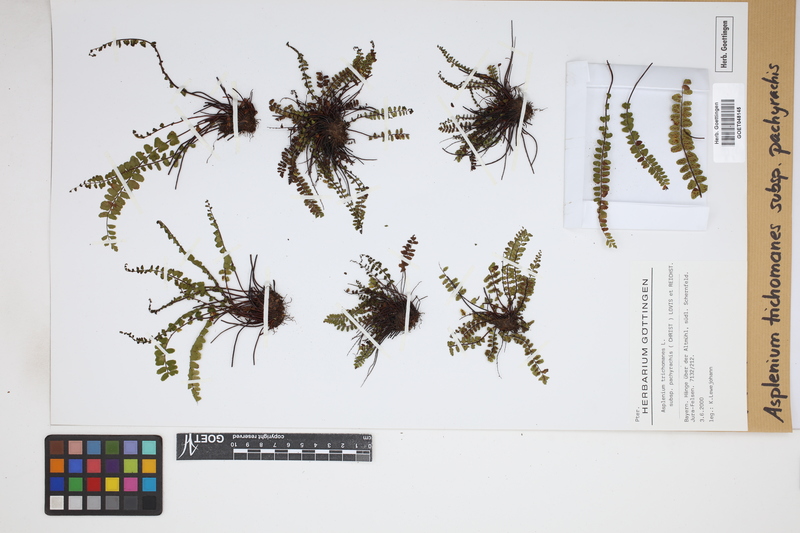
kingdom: Plantae
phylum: Tracheophyta
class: Polypodiopsida
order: Polypodiales
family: Aspleniaceae
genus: Asplenium
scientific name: Asplenium csikii
